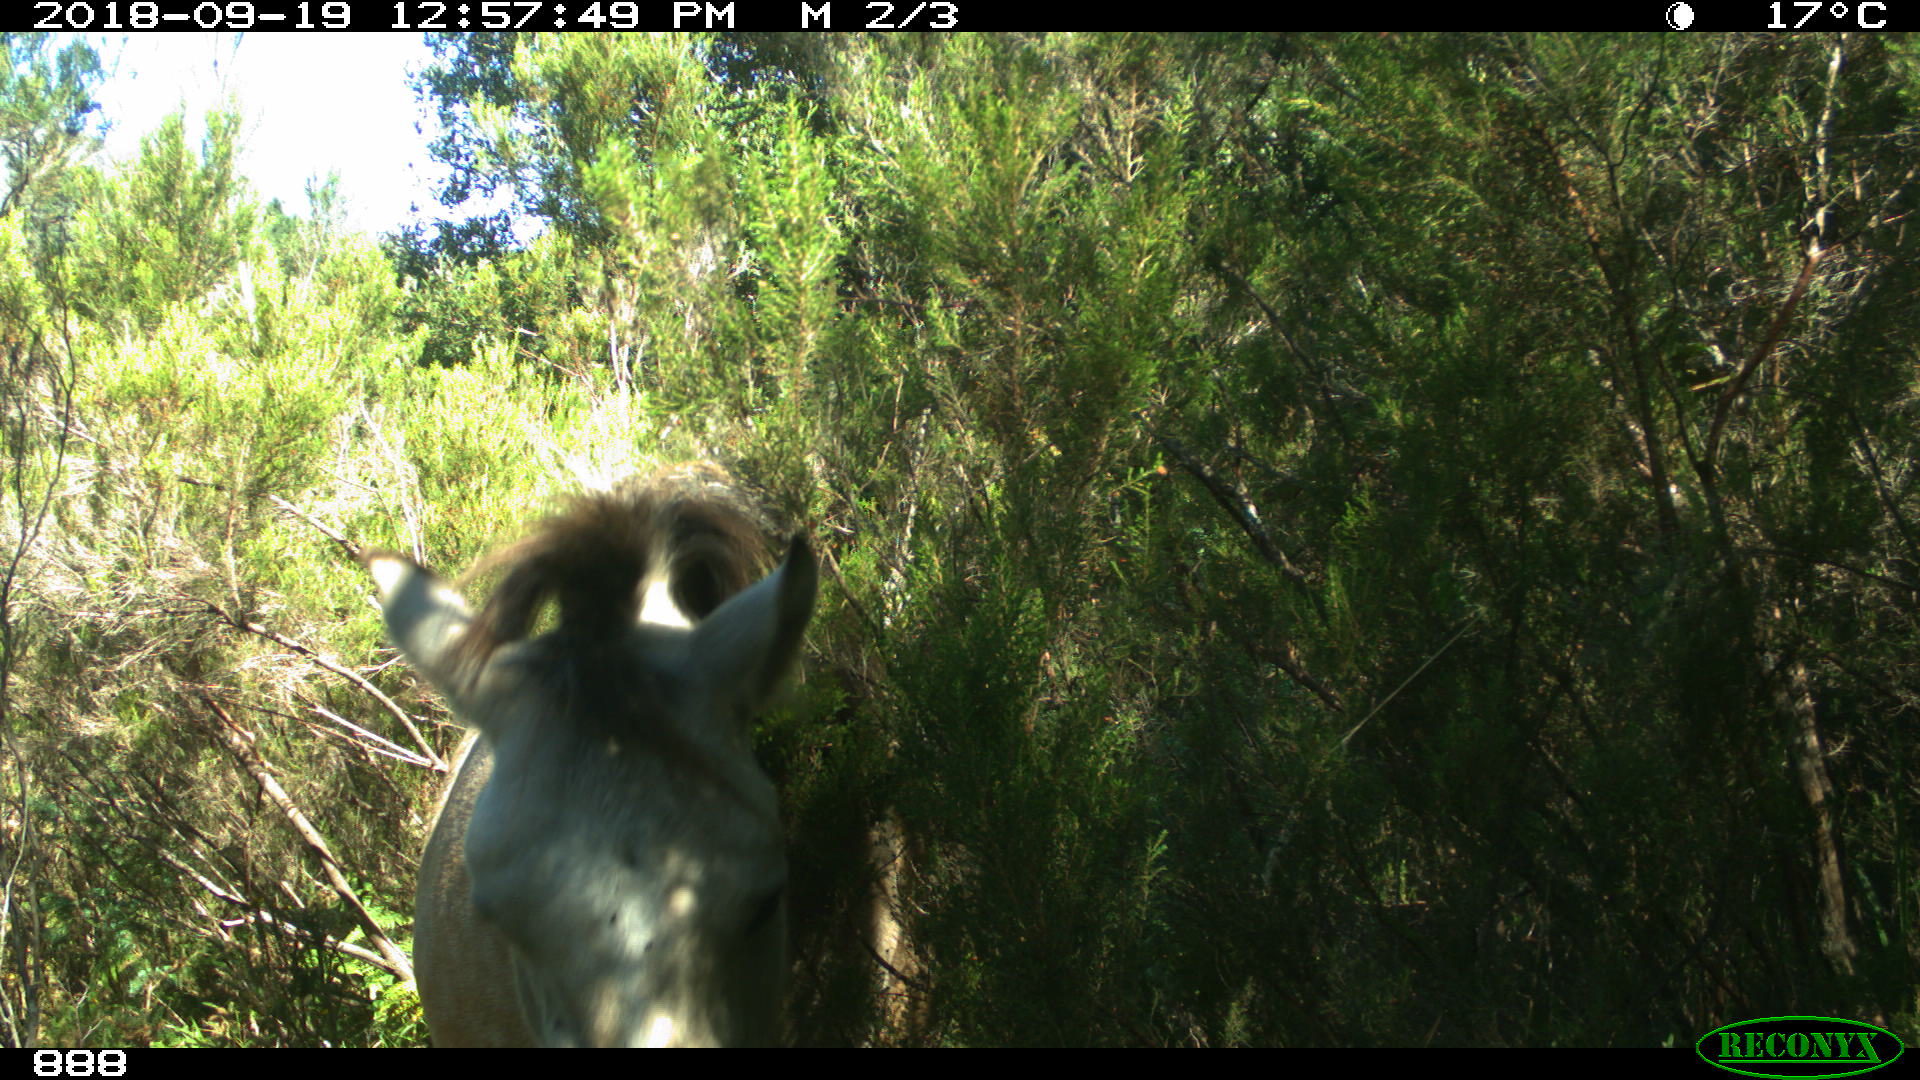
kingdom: Animalia
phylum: Chordata
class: Mammalia
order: Perissodactyla
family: Equidae
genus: Equus
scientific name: Equus caballus
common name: Horse
